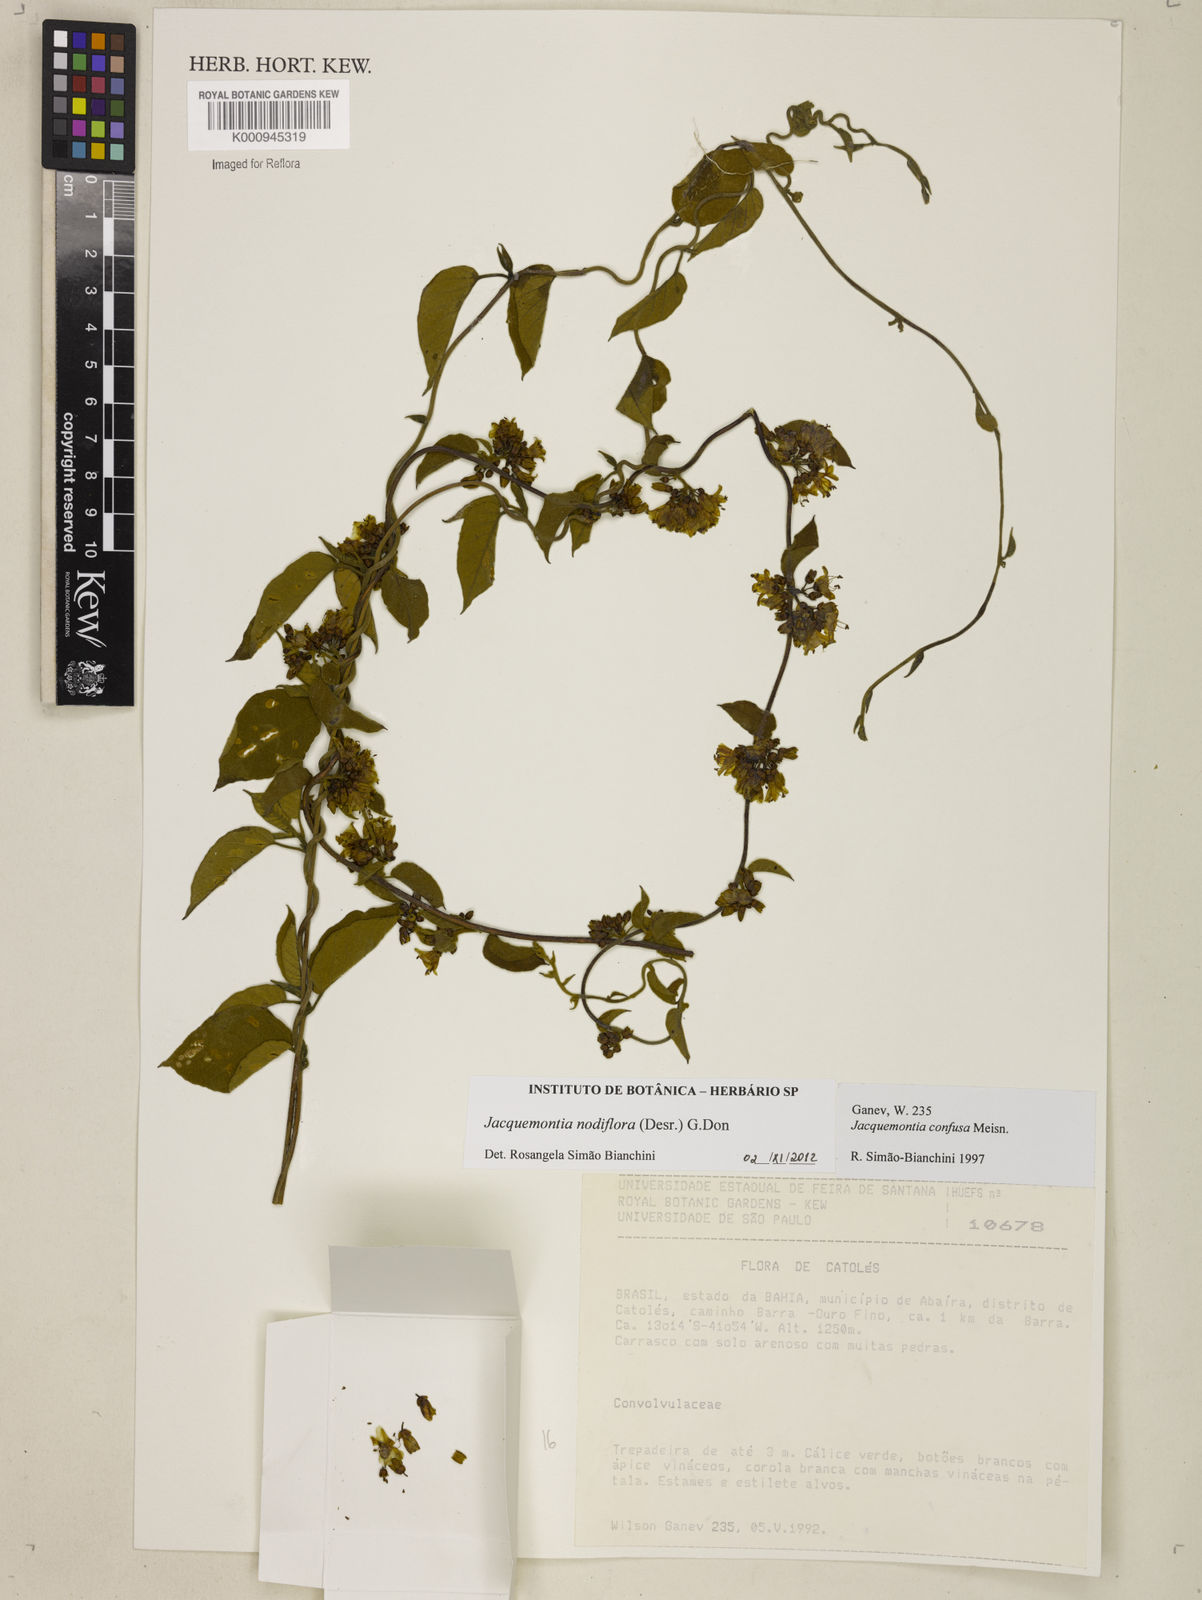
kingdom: Plantae
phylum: Tracheophyta
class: Magnoliopsida
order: Solanales
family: Convolvulaceae
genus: Jacquemontia
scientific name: Jacquemontia nodiflora
